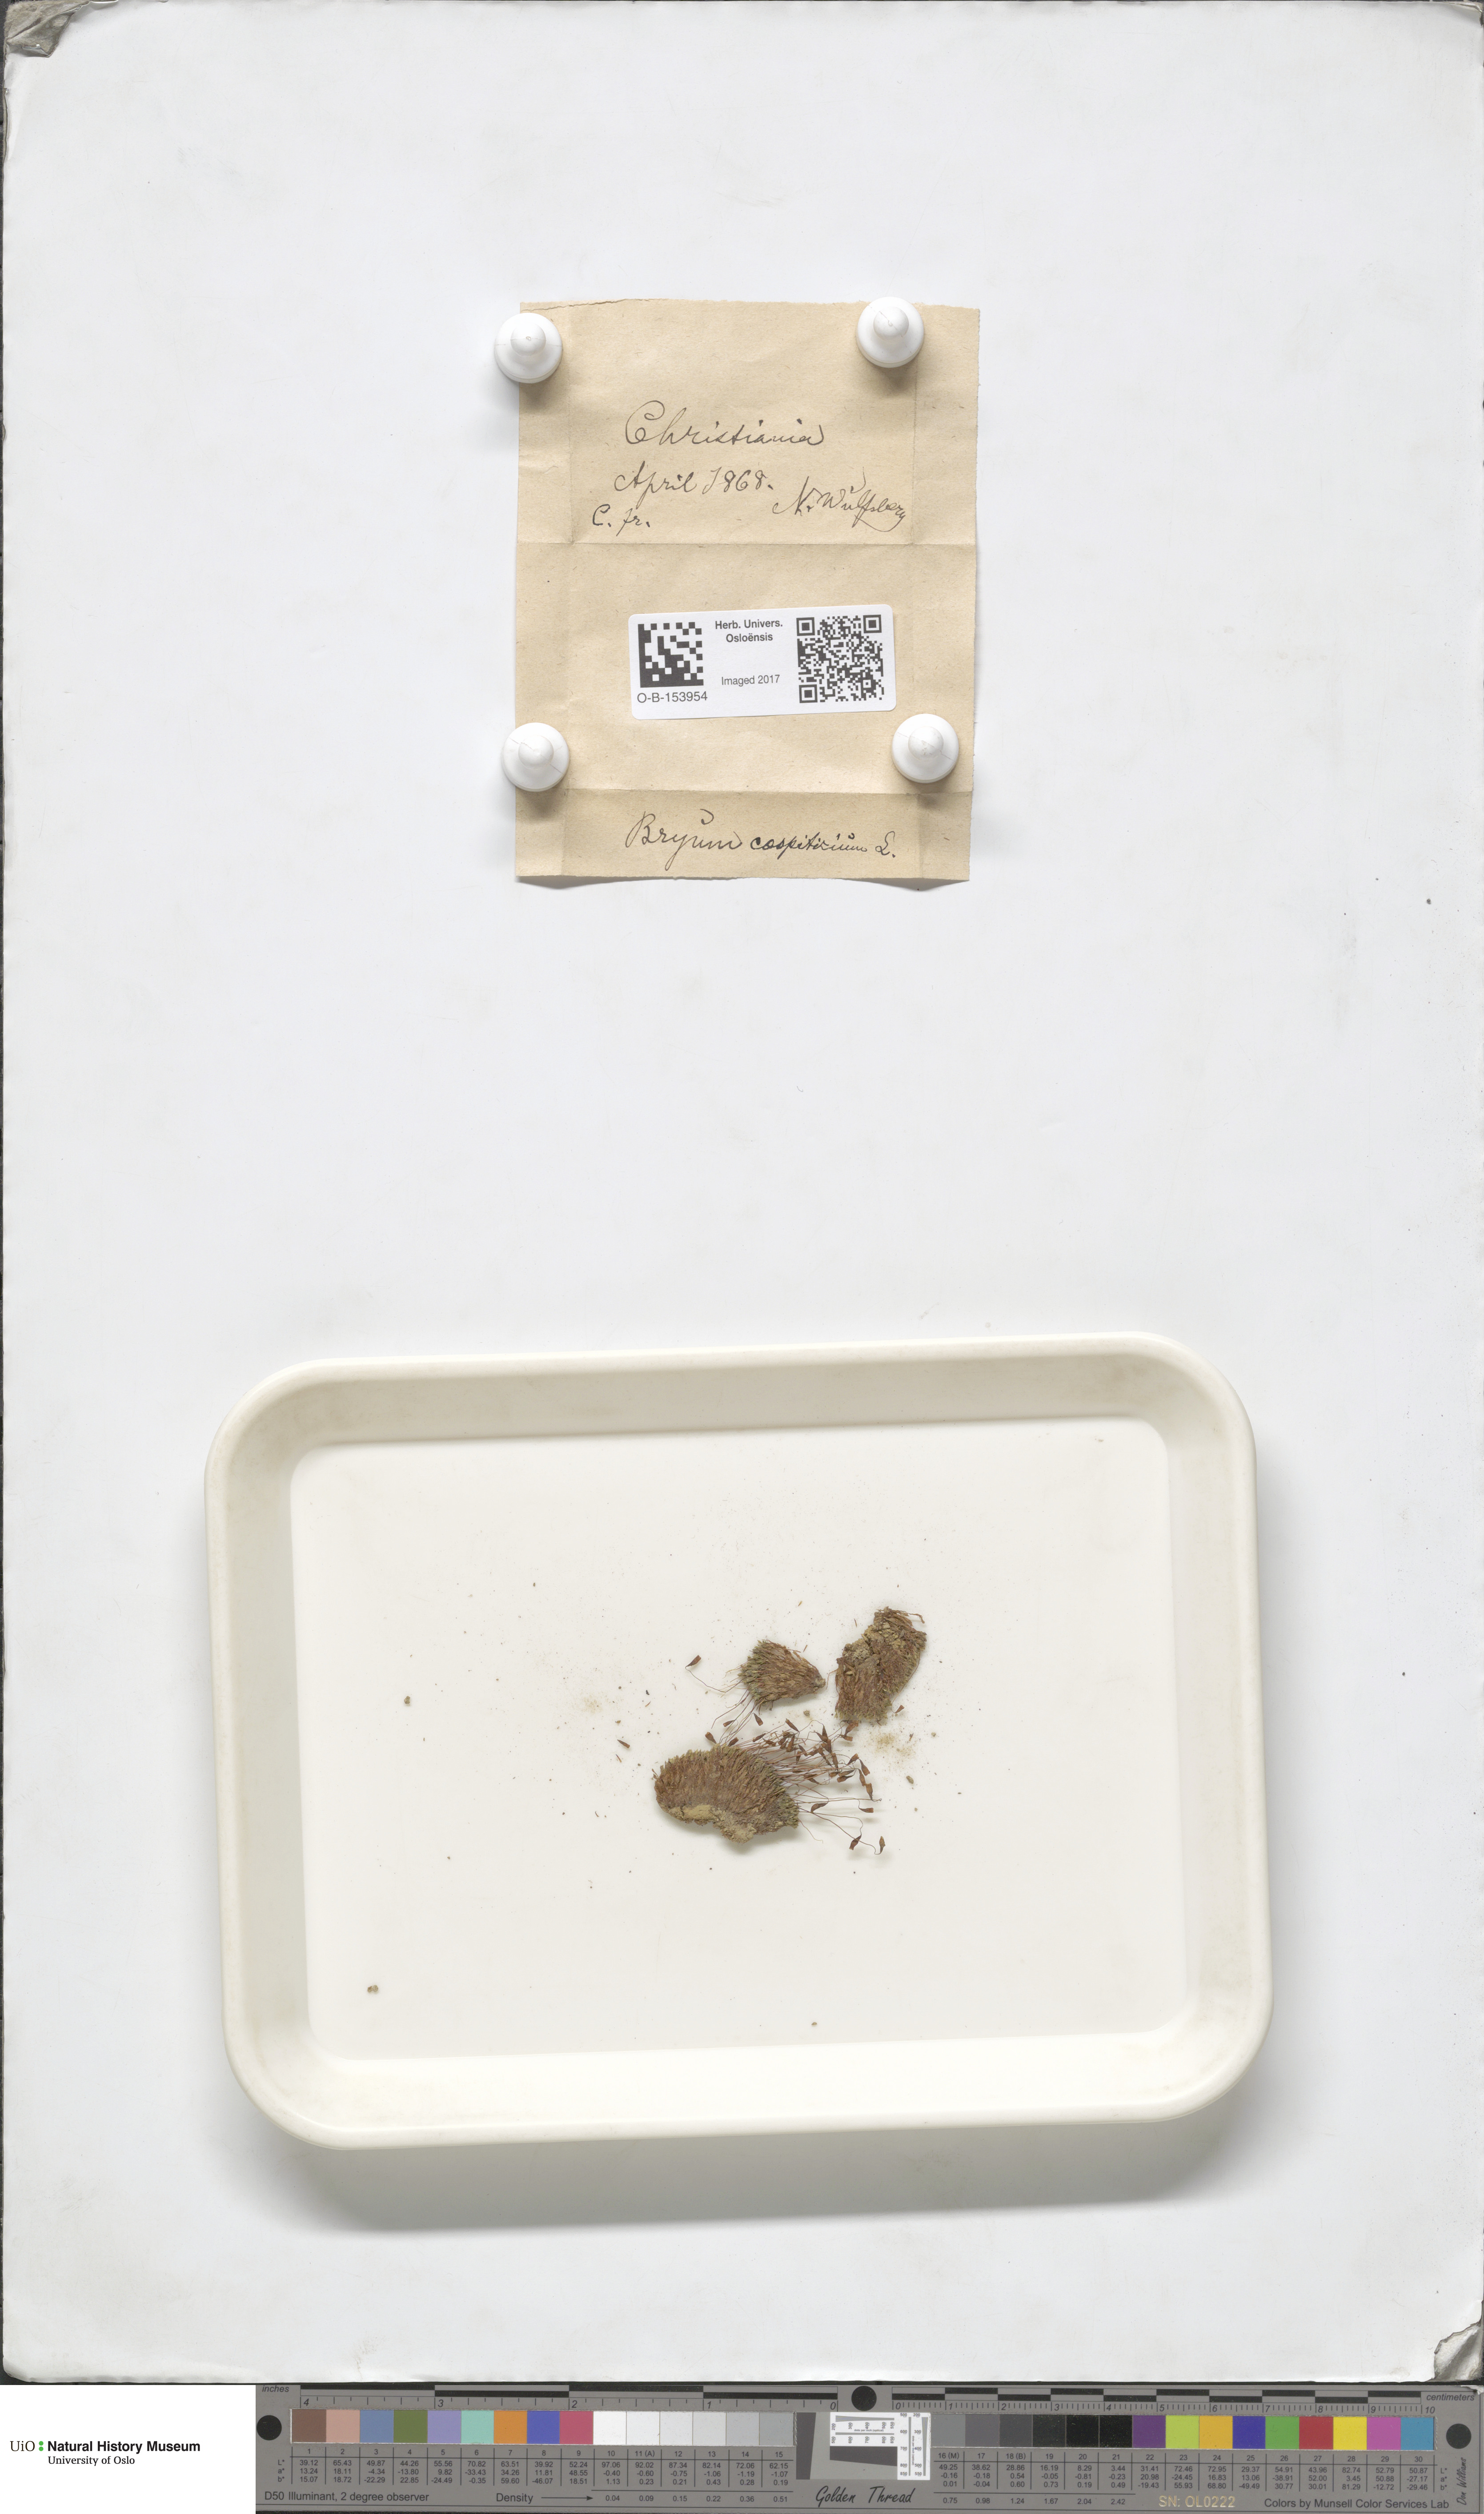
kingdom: Plantae
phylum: Bryophyta
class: Bryopsida
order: Bryales
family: Bryaceae
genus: Gemmabryum
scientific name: Gemmabryum caespiticium
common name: Handbell moss
